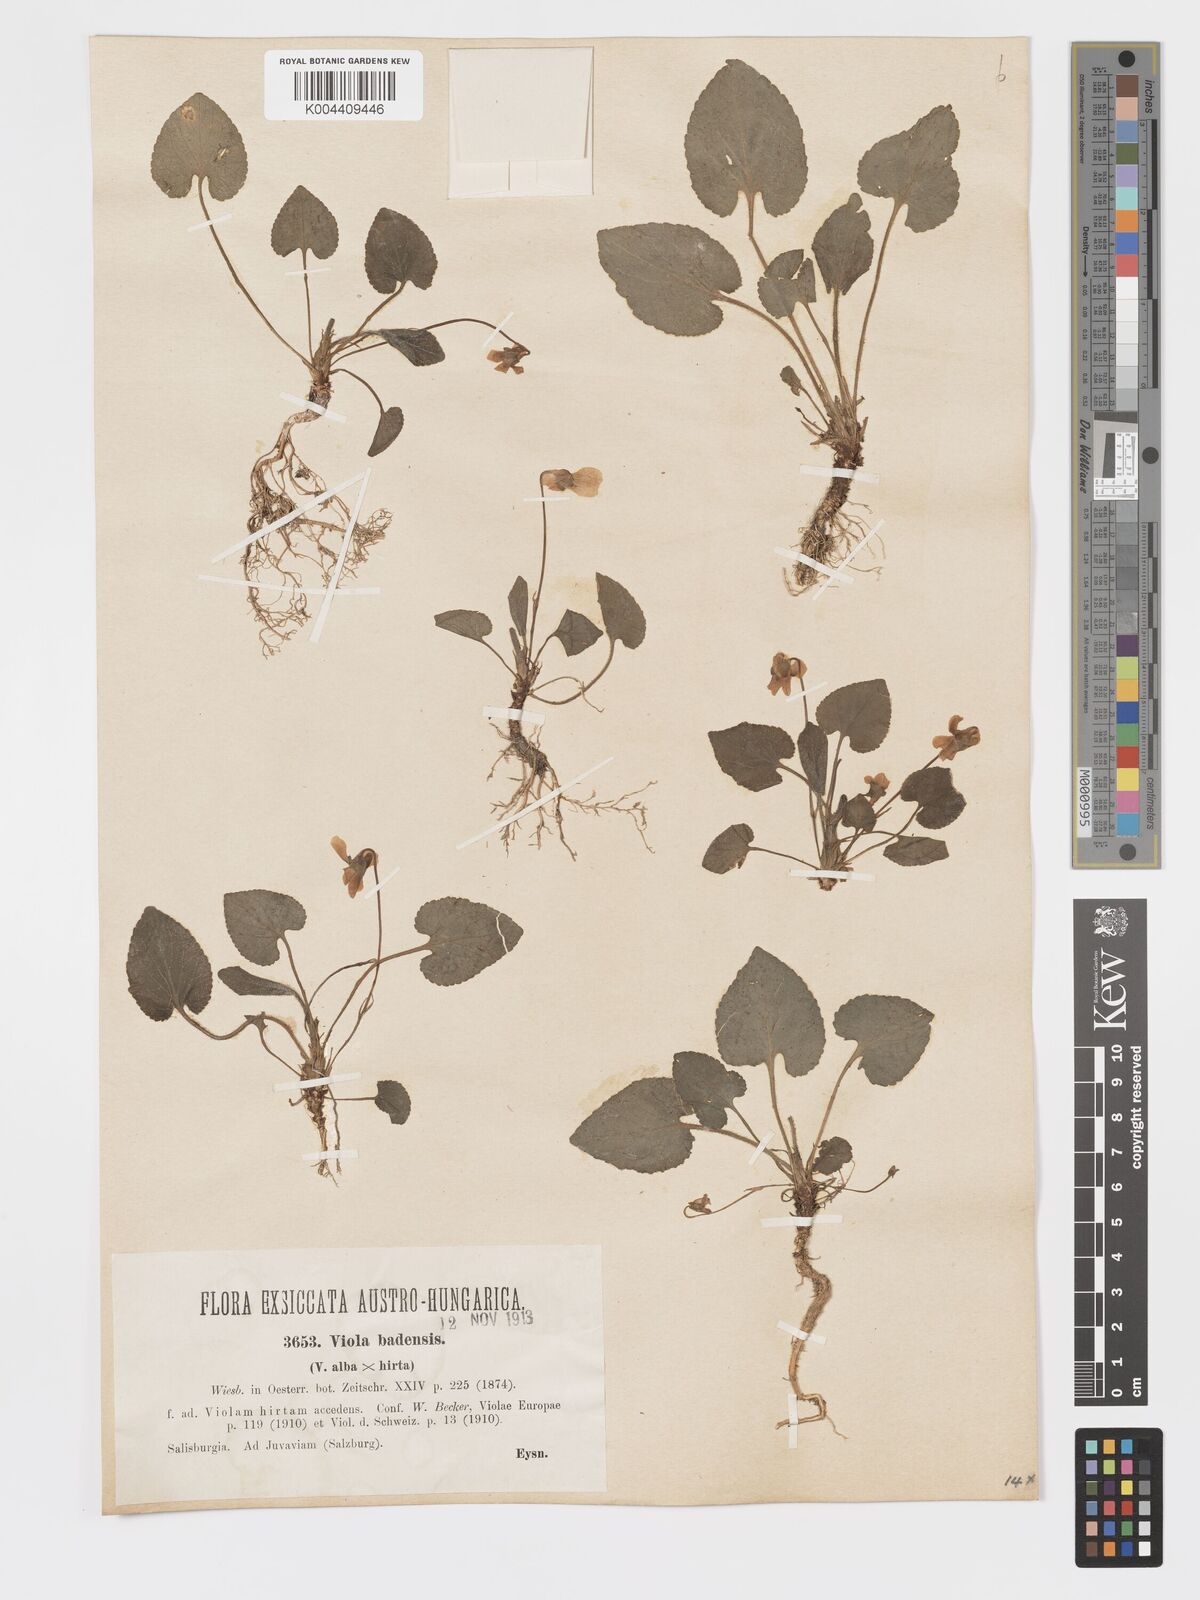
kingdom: Plantae
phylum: Tracheophyta
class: Magnoliopsida
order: Malpighiales
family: Violaceae
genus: Viola
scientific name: Viola alba
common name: White violet
